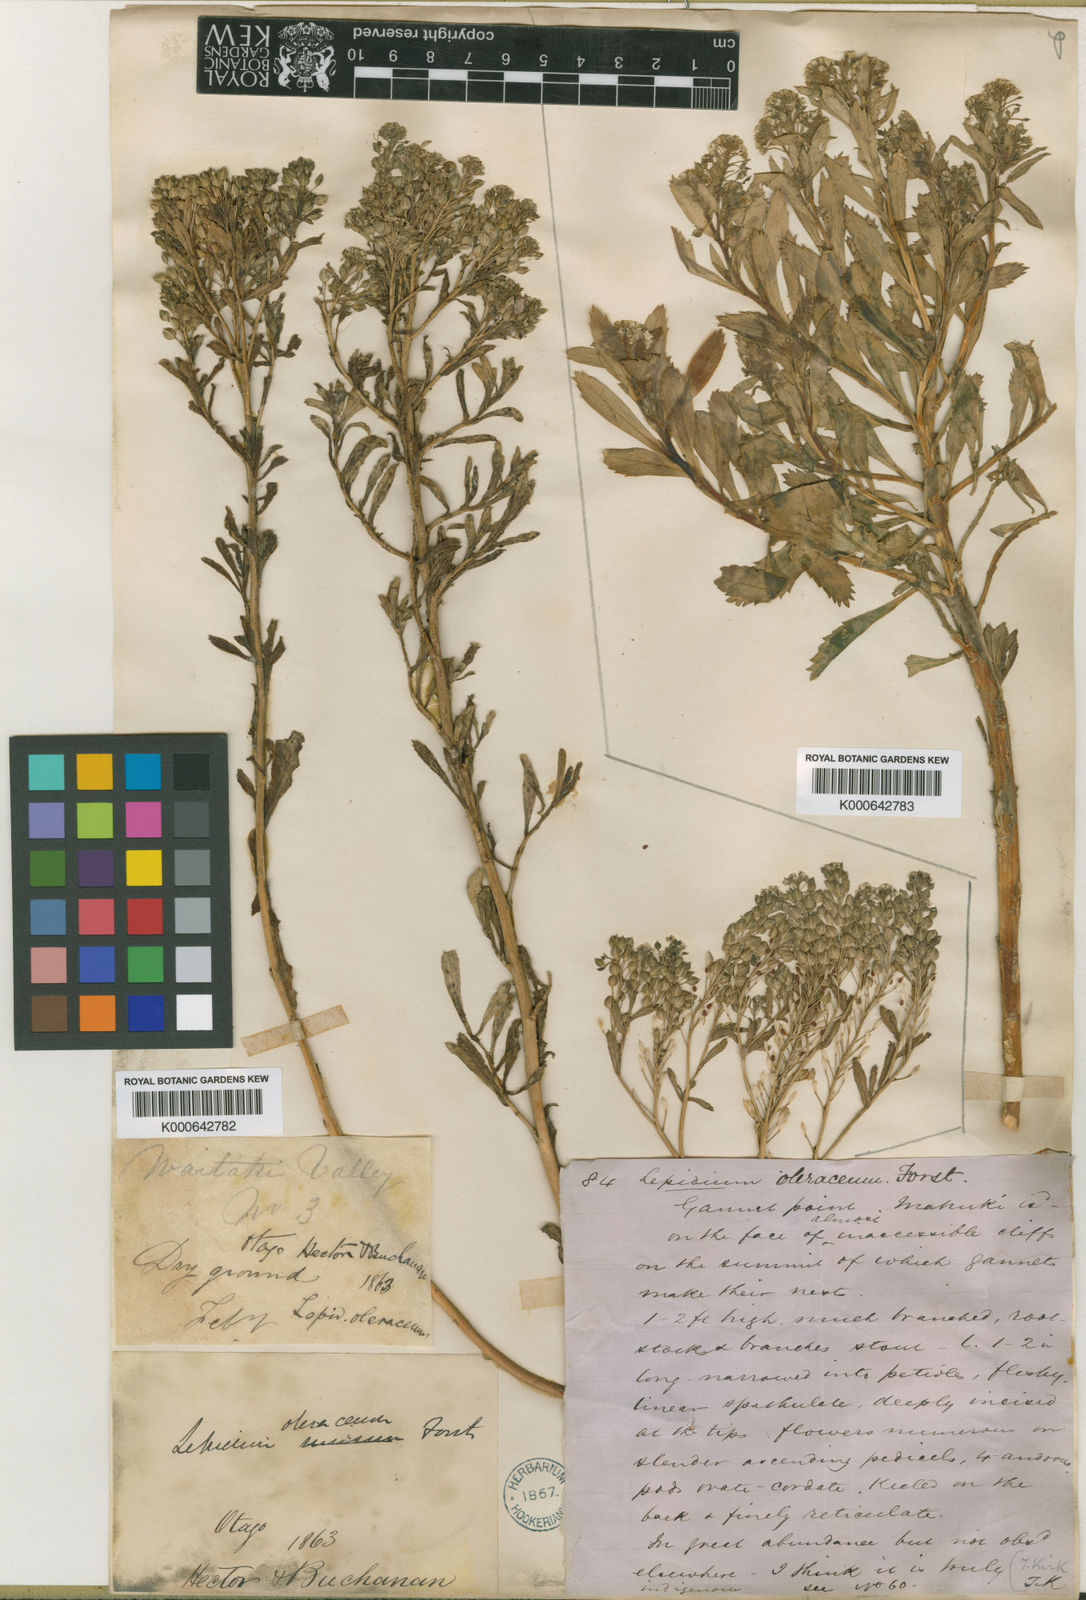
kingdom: Plantae
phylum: Tracheophyta
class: Magnoliopsida
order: Brassicales
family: Brassicaceae
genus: Lepidium
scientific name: Lepidium sisymbrioides
